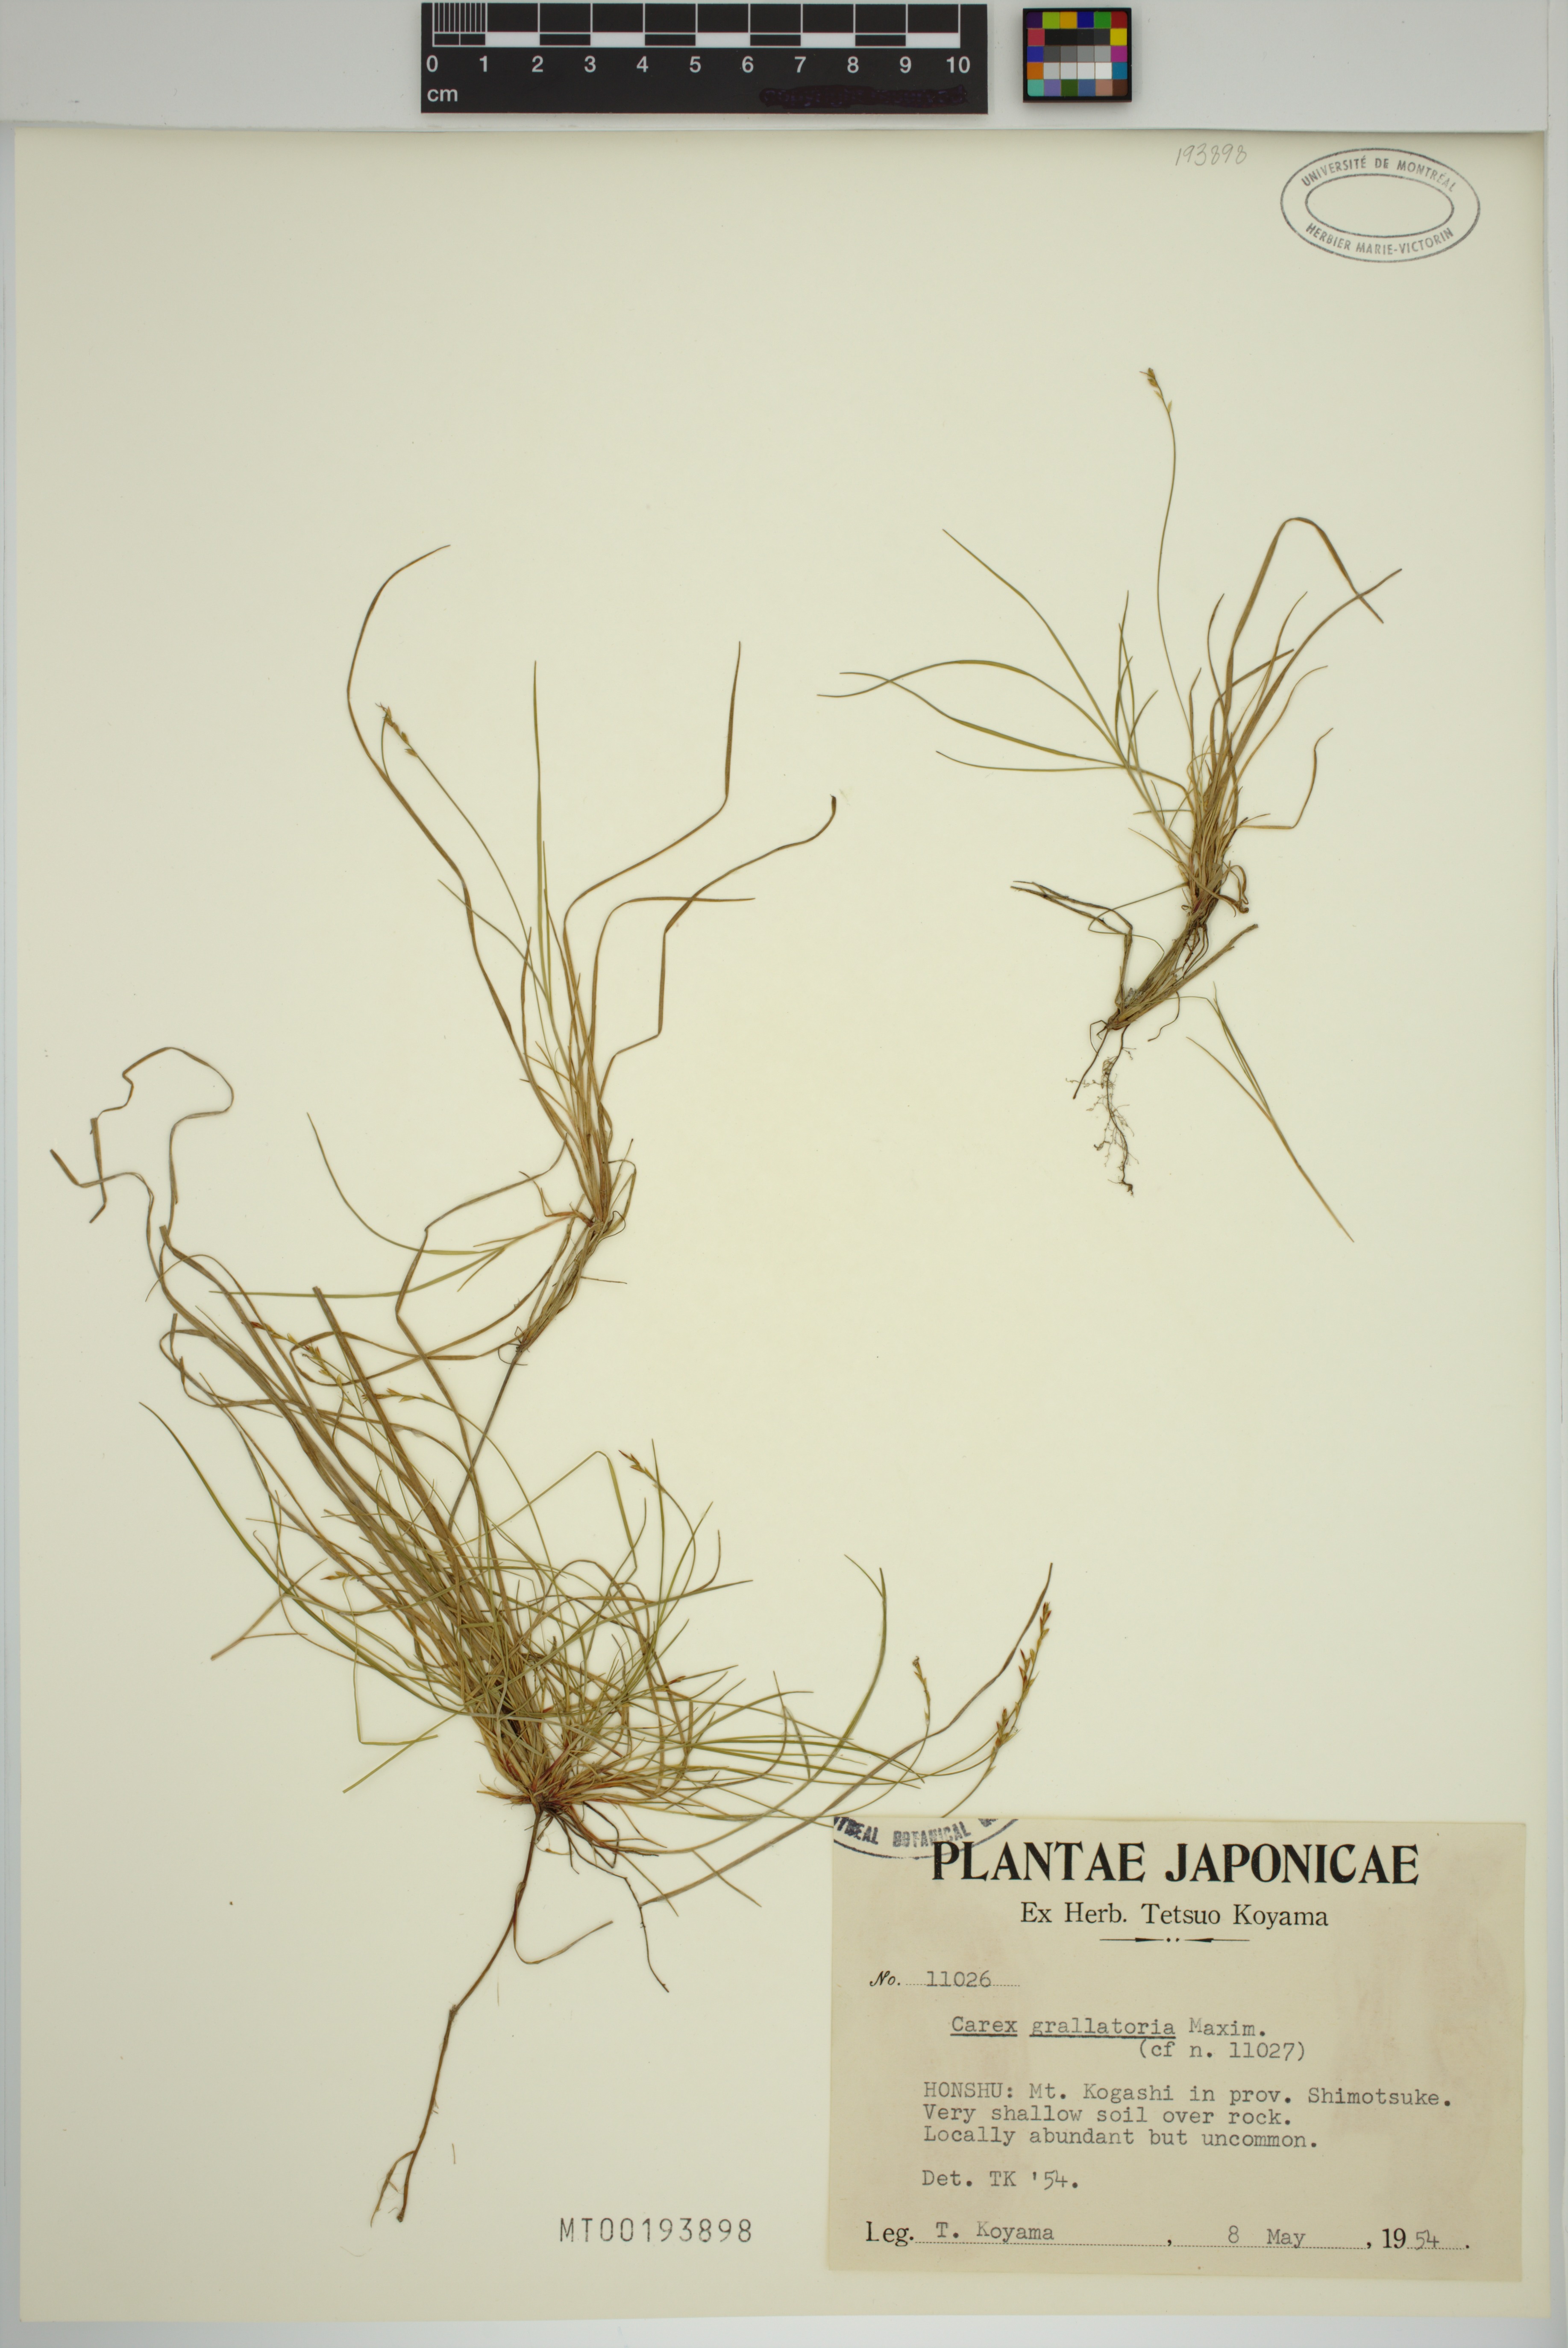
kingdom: Plantae
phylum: Tracheophyta
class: Liliopsida
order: Poales
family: Cyperaceae
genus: Carex
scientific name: Carex grallatoria
